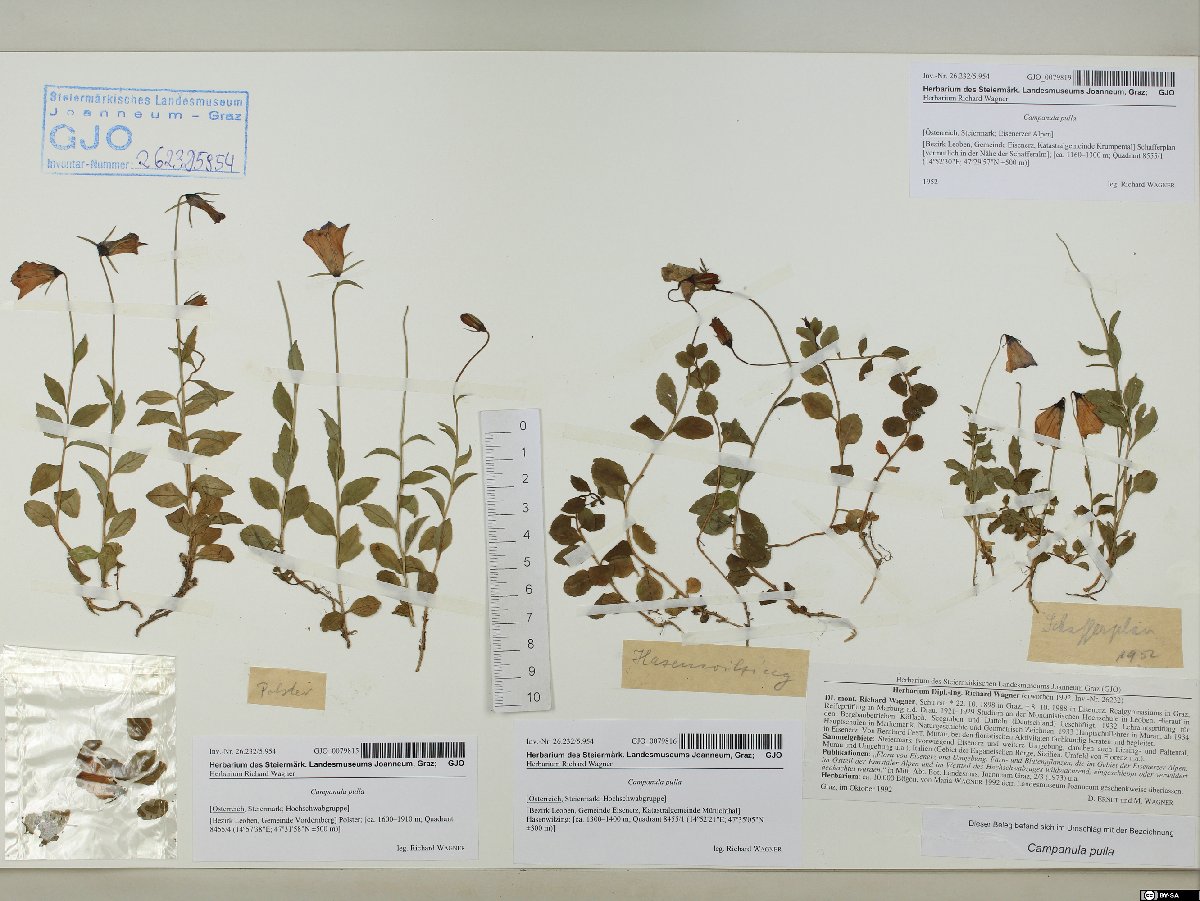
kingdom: Plantae
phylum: Tracheophyta
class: Magnoliopsida
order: Asterales
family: Campanulaceae
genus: Campanula
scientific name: Campanula pulla
